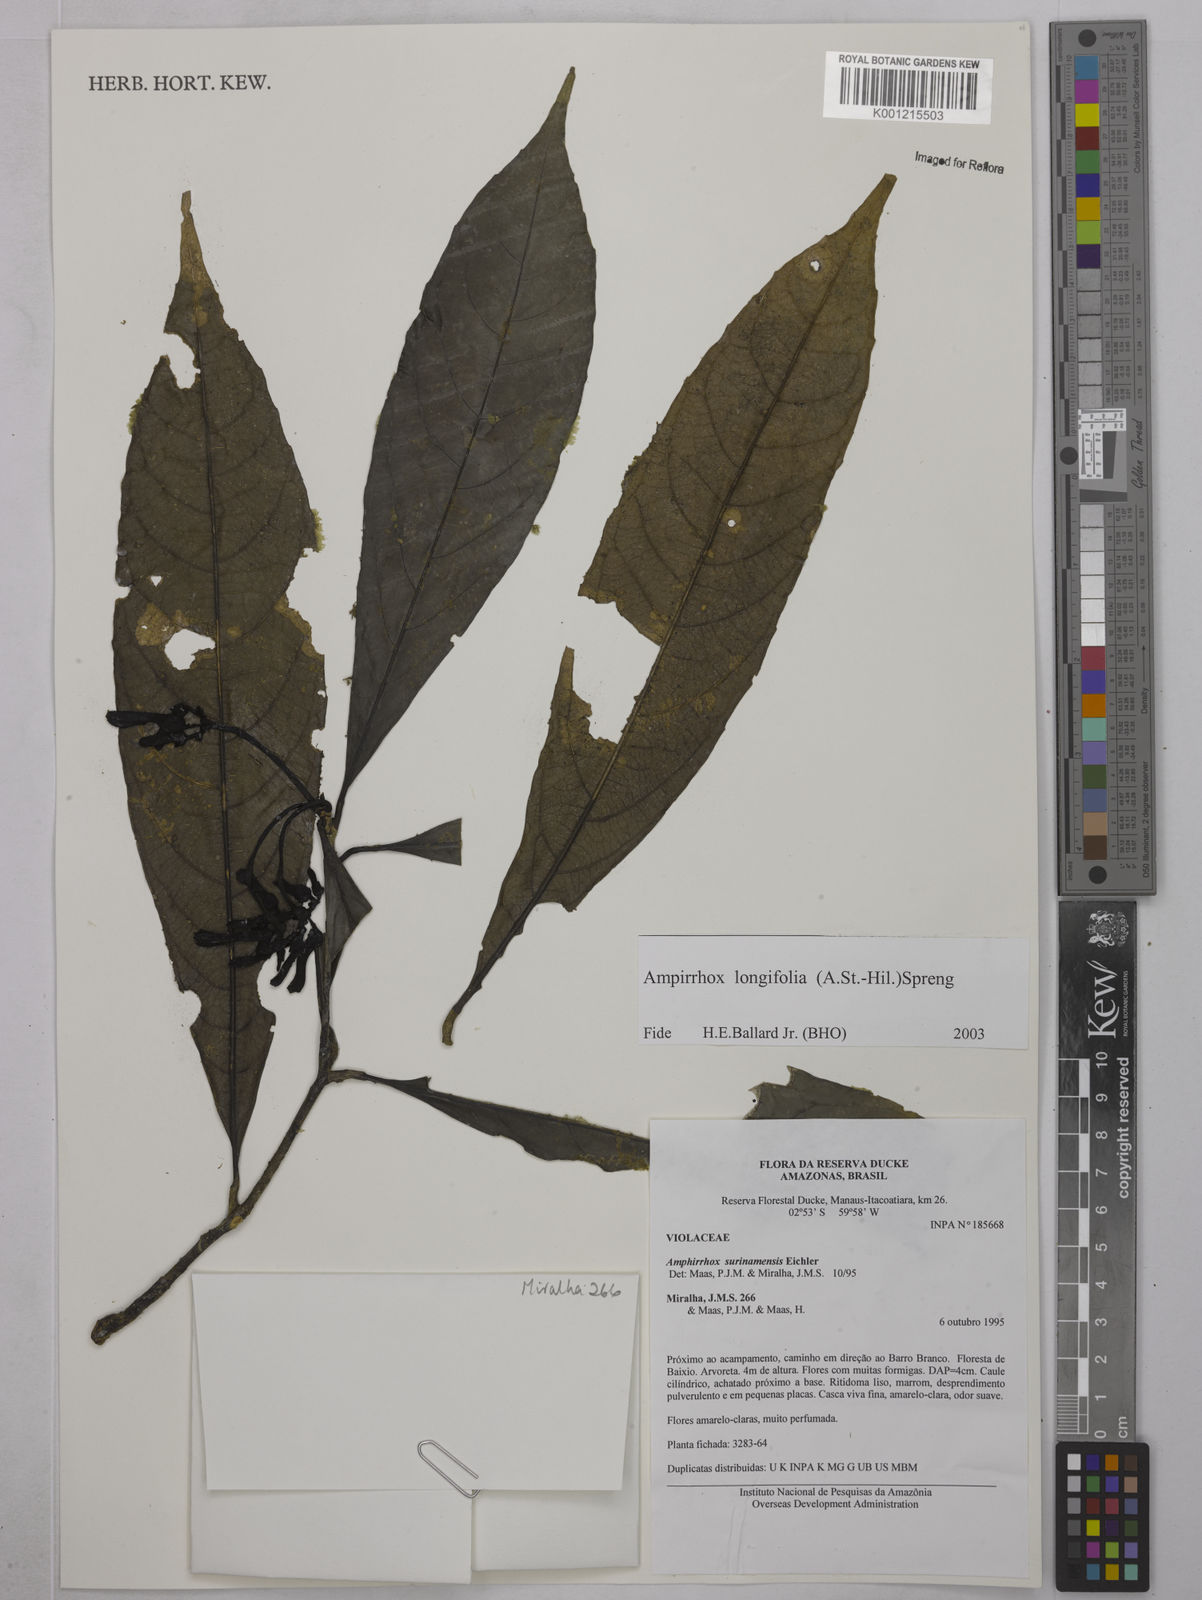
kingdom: Plantae
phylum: Tracheophyta
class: Magnoliopsida
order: Malpighiales
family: Violaceae
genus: Amphirrhox
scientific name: Amphirrhox longifolia
